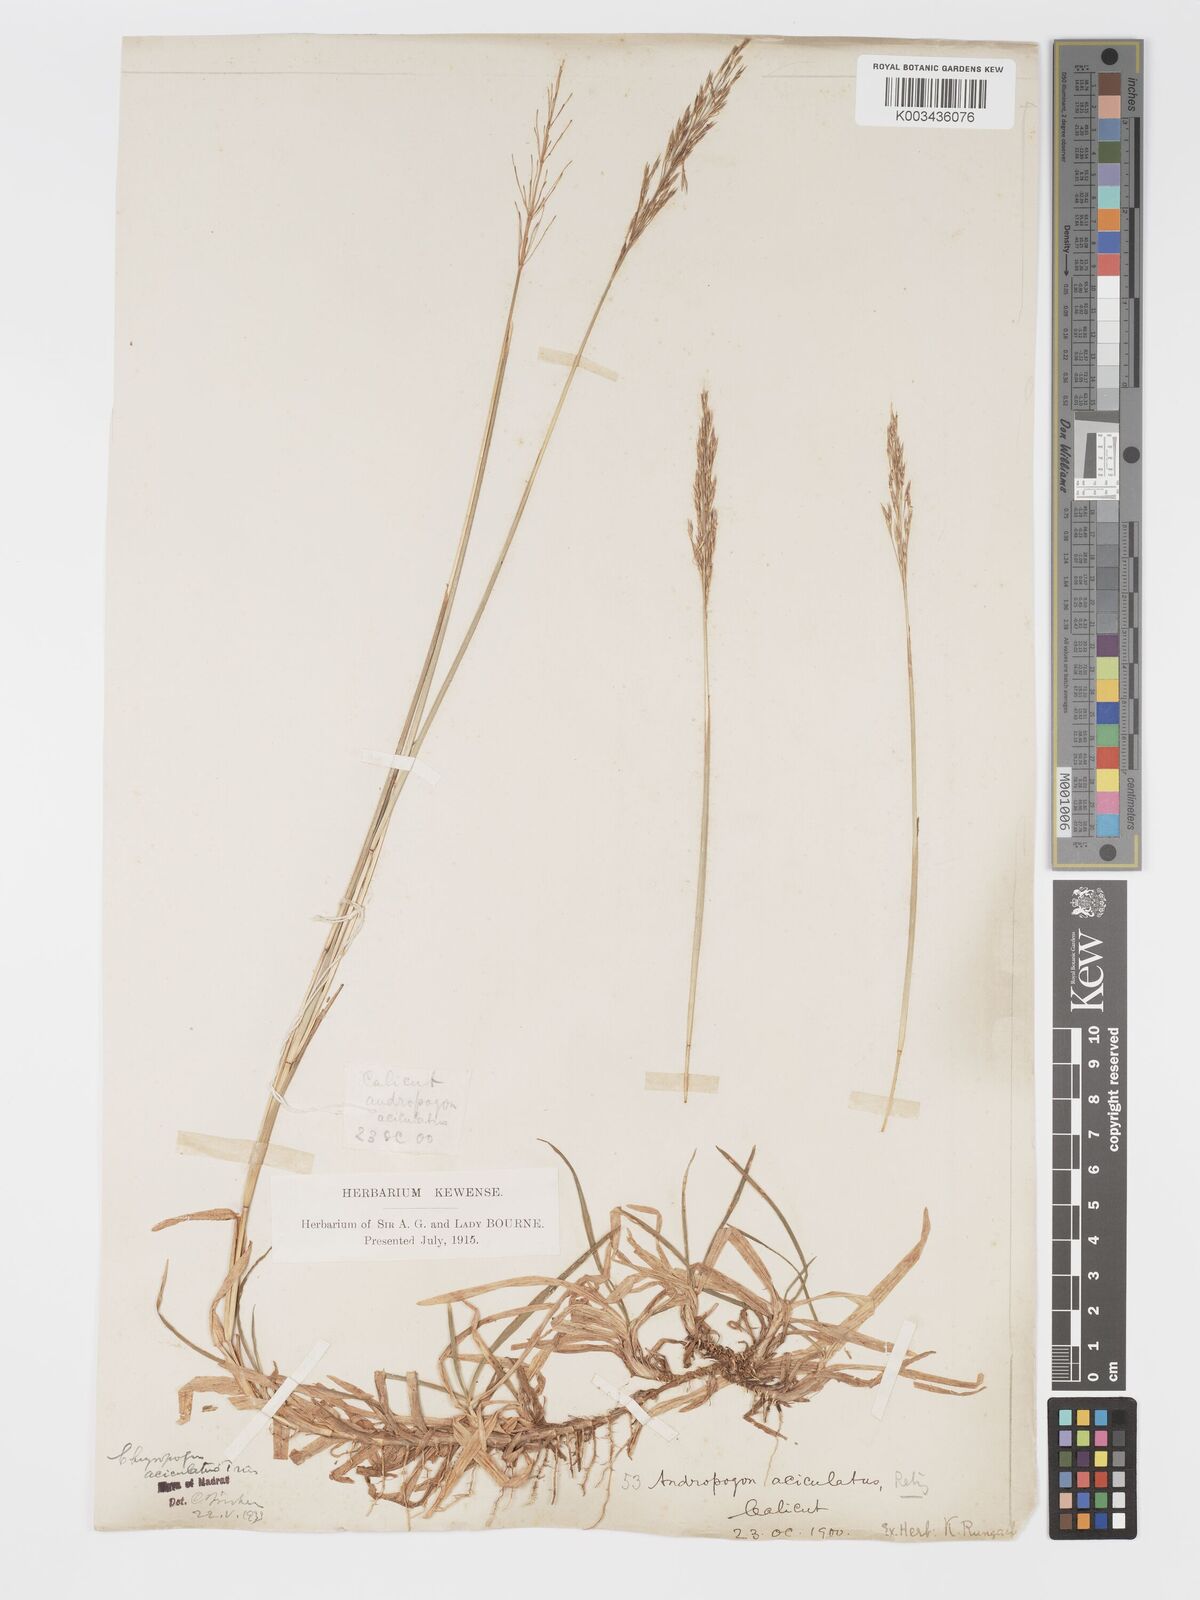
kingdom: Plantae
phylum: Tracheophyta
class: Liliopsida
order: Poales
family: Poaceae
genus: Chrysopogon
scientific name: Chrysopogon aciculatus
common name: Pilipiliula
